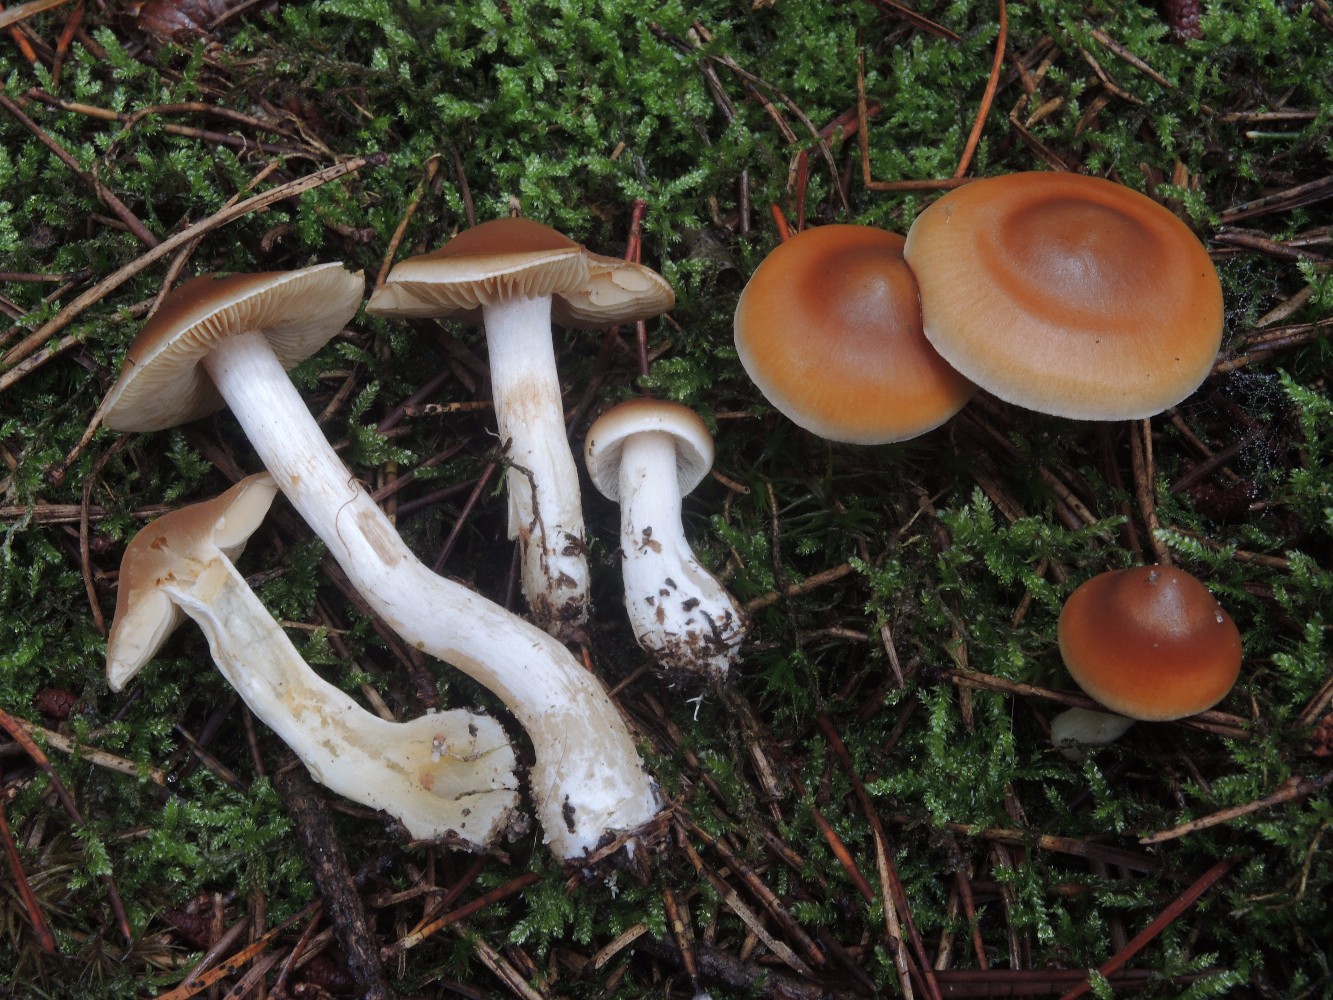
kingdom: Fungi
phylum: Basidiomycota
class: Agaricomycetes
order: Agaricales
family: Cortinariaceae
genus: Thaxterogaster
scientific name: Thaxterogaster microspermus
